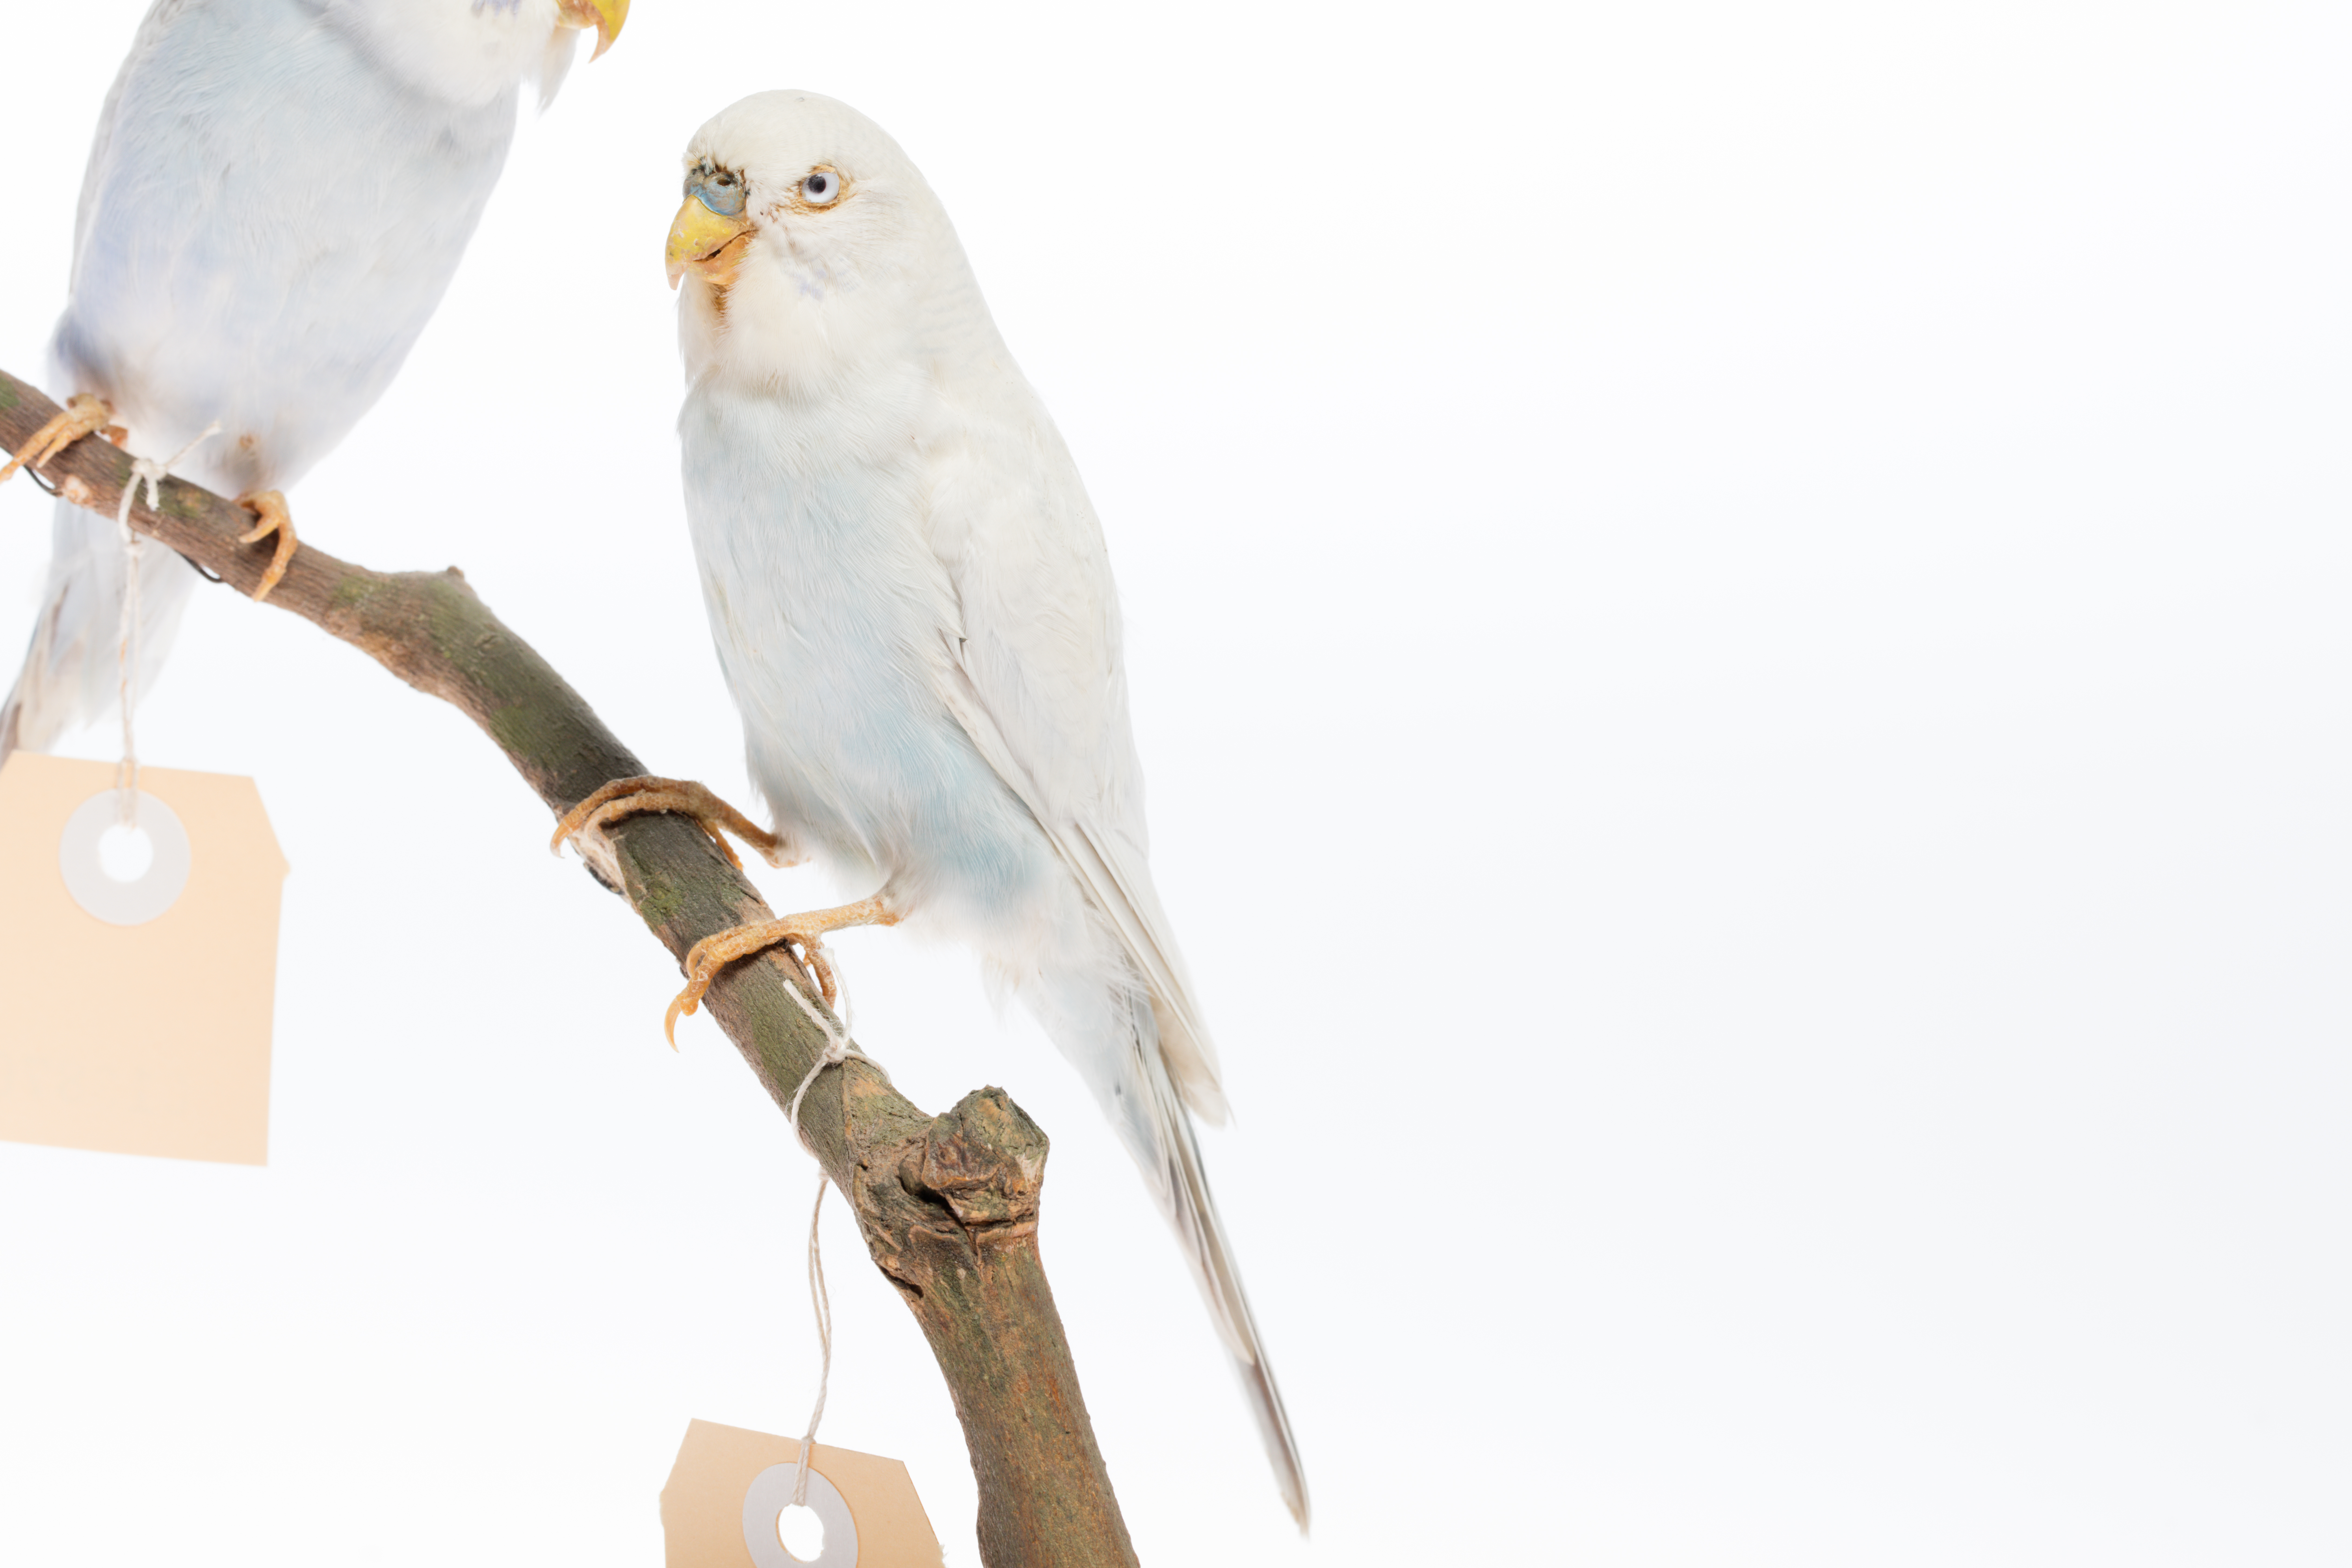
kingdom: Animalia
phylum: Chordata
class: Aves
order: Psittaciformes
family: Psittacidae
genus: Melopsittacus
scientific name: Melopsittacus undulatus
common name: Budgerigar
